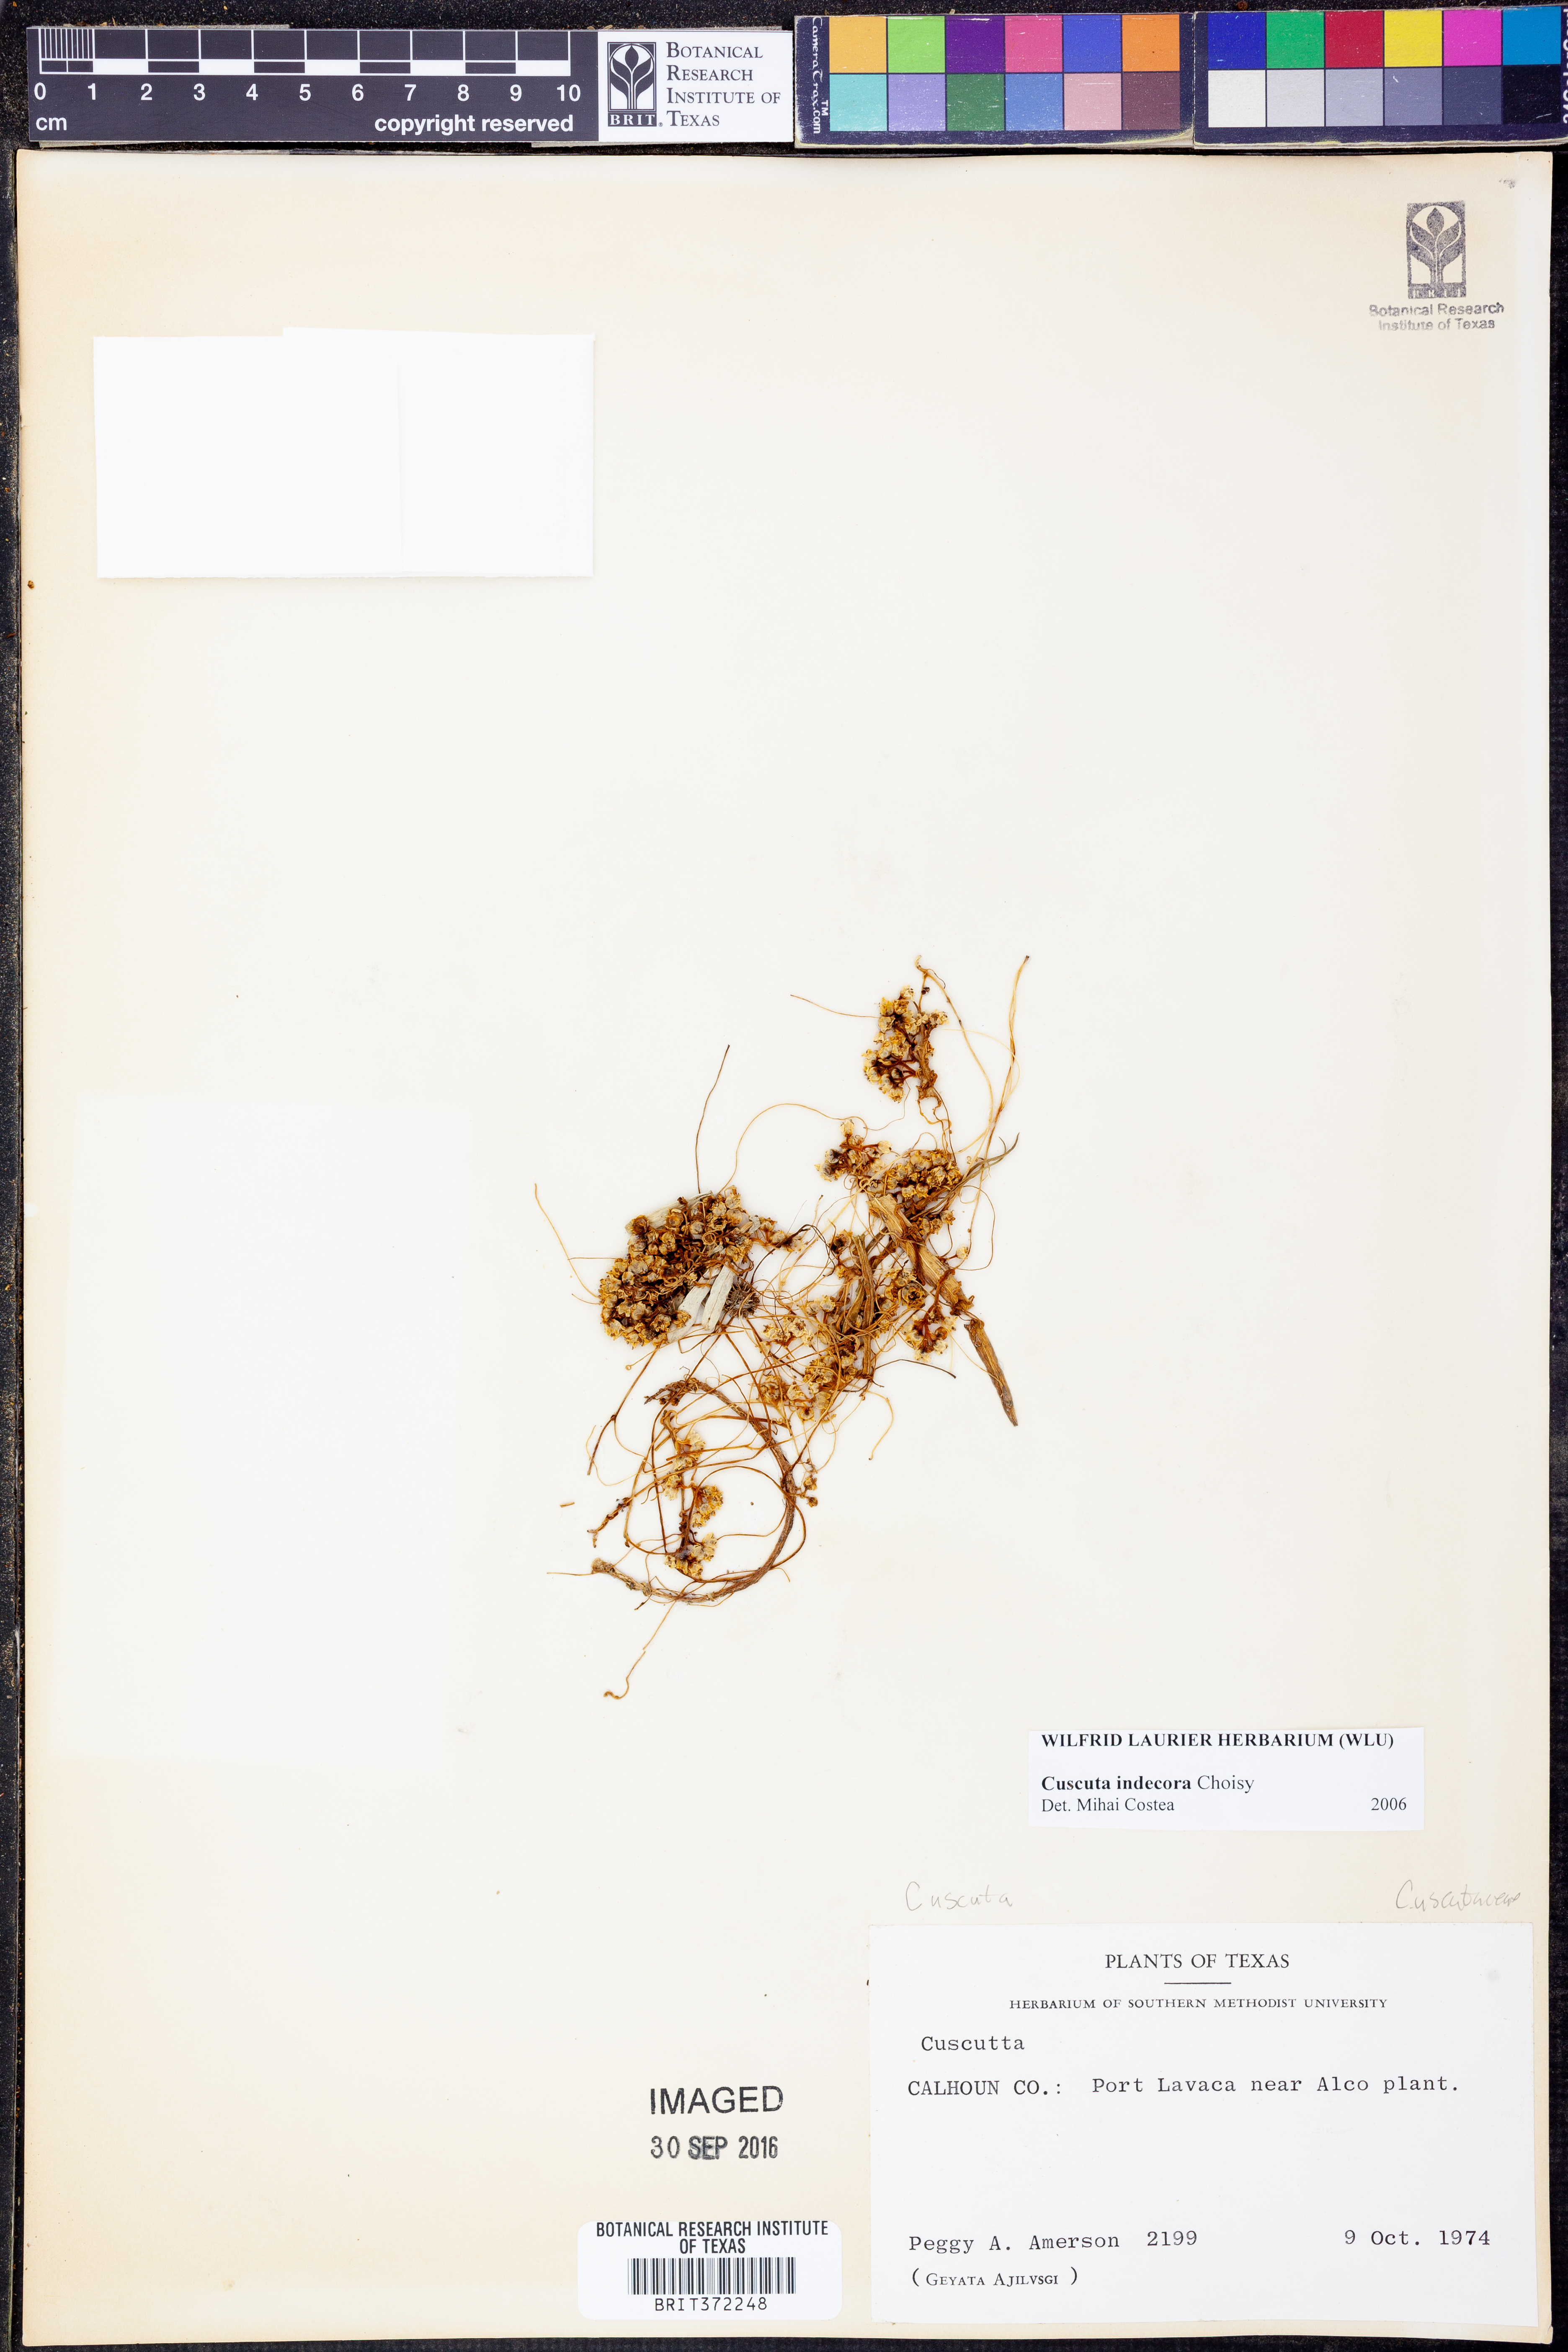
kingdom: Plantae
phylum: Tracheophyta
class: Magnoliopsida
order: Solanales
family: Convolvulaceae
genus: Cuscuta
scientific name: Cuscuta indecora
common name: Large-seed dodder
